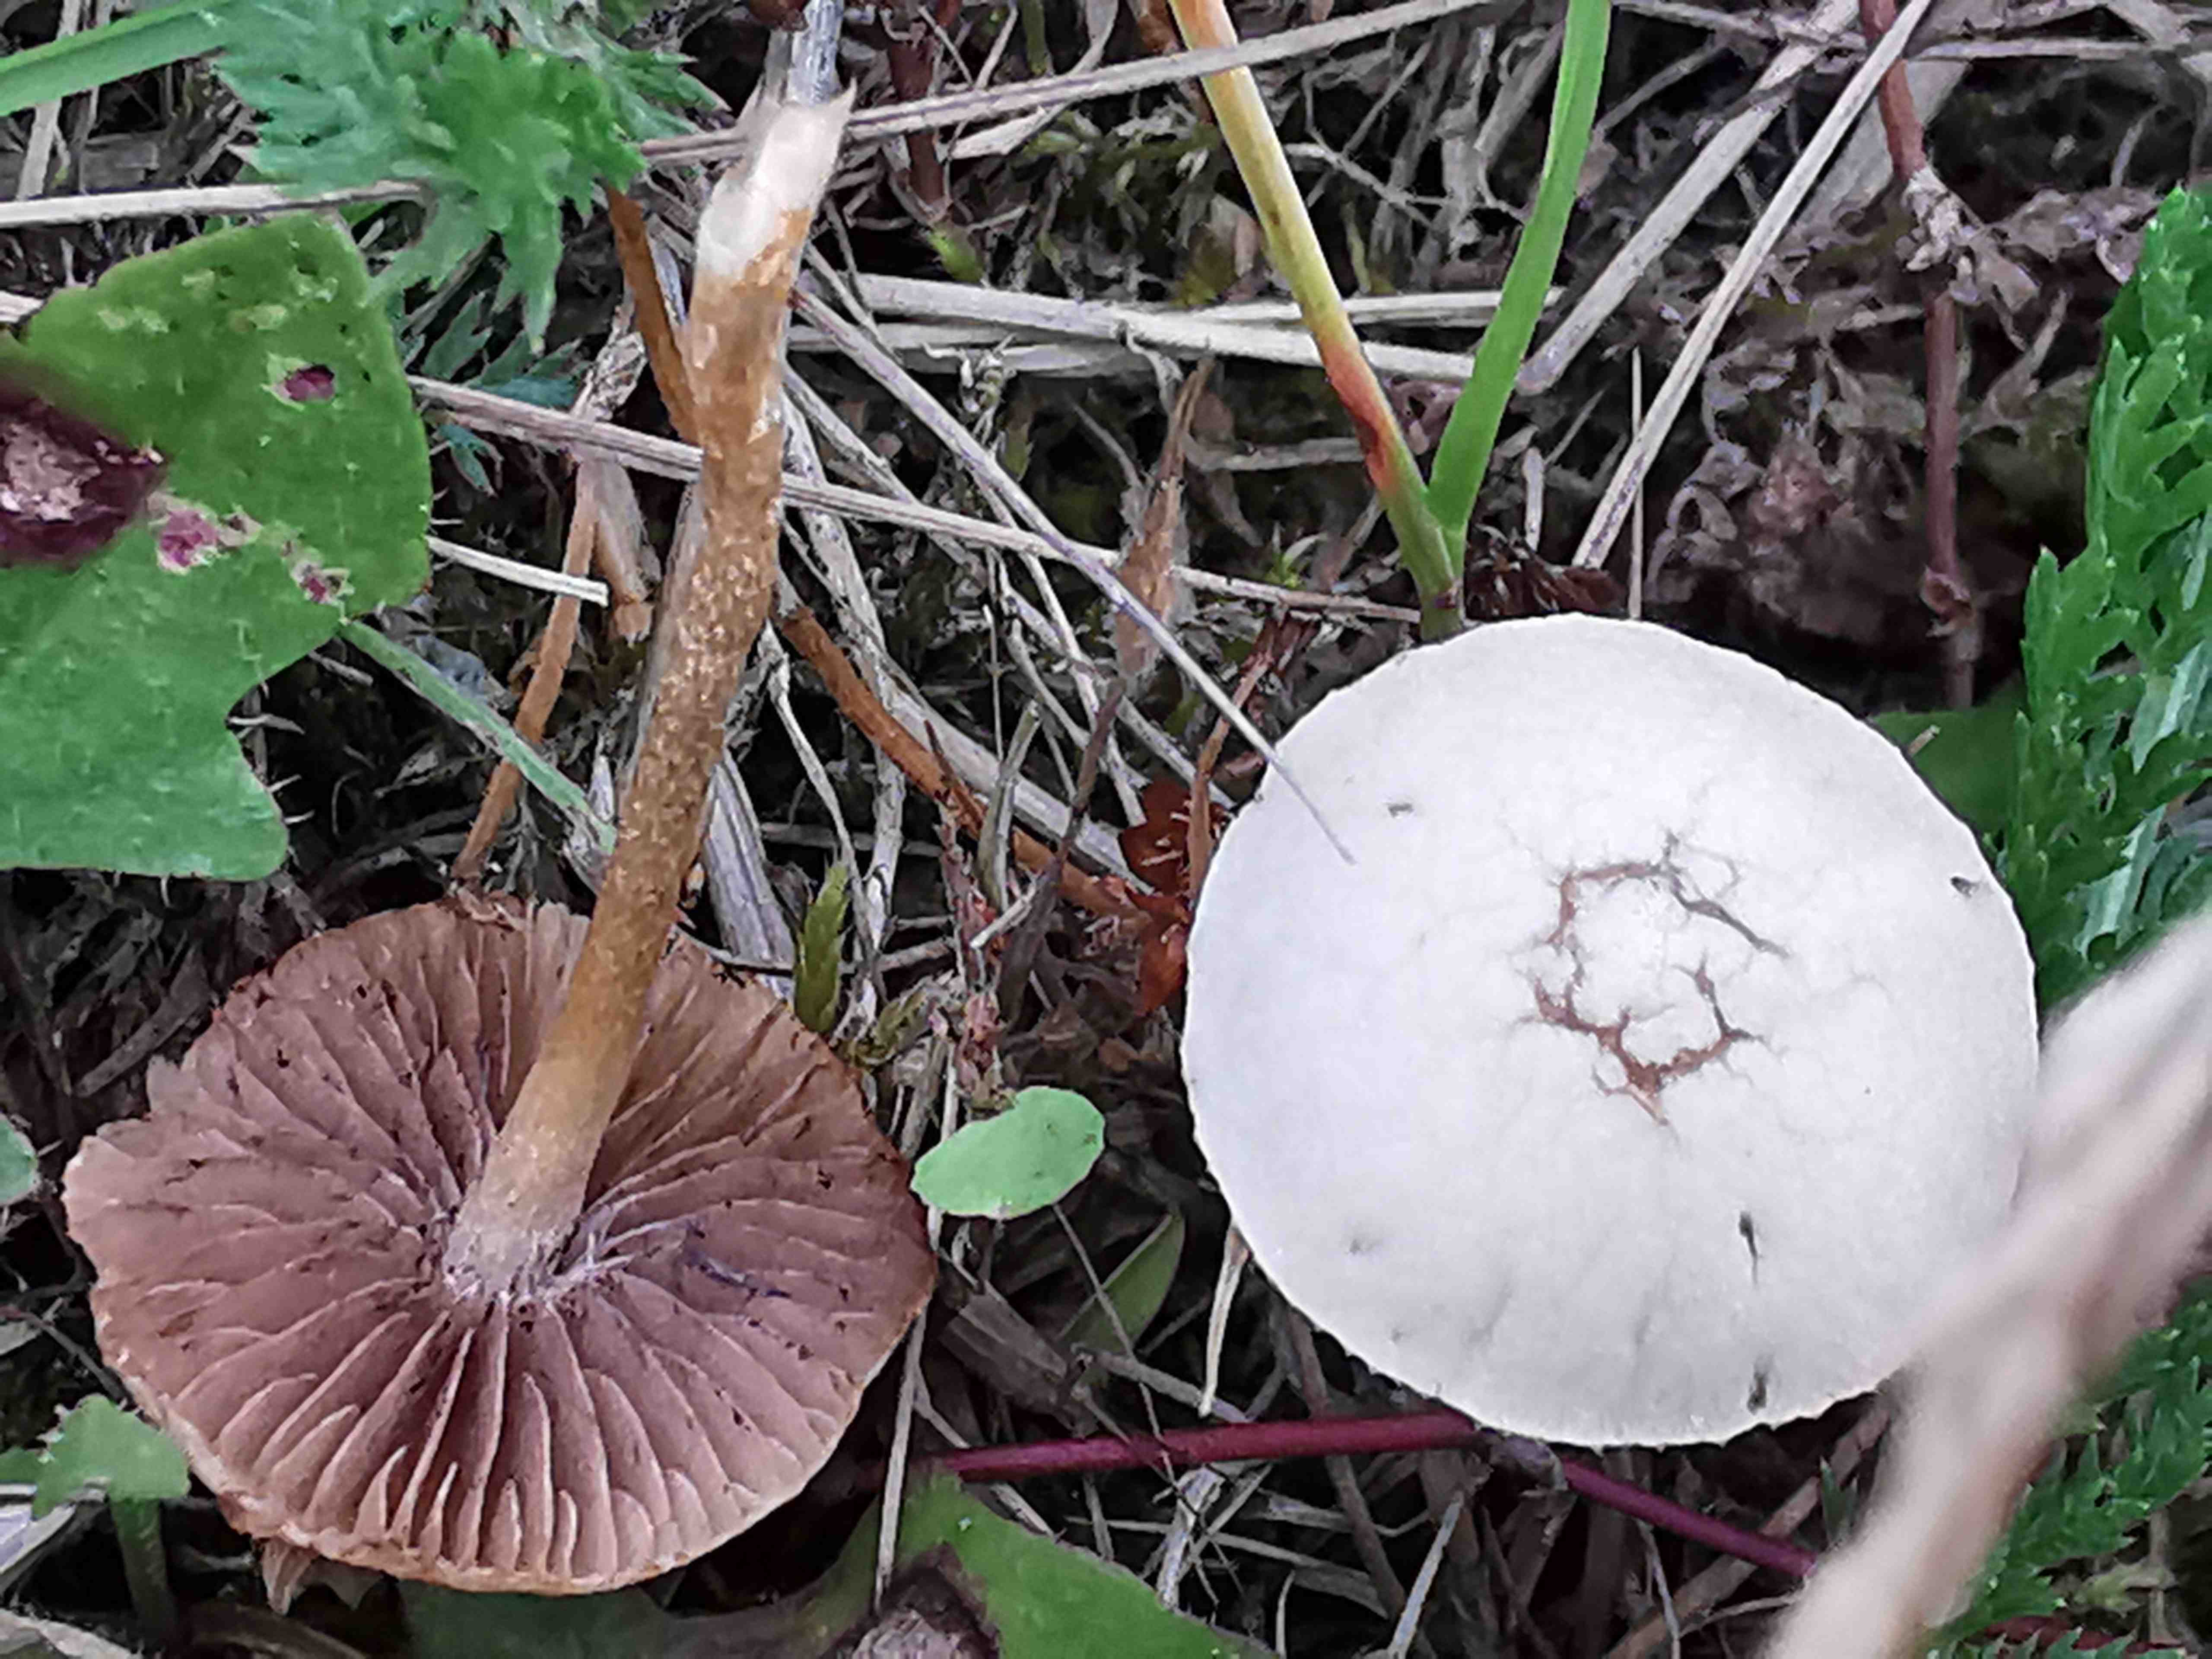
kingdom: Fungi
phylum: Basidiomycota
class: Agaricomycetes
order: Agaricales
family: Strophariaceae
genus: Agrocybe
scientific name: Agrocybe
